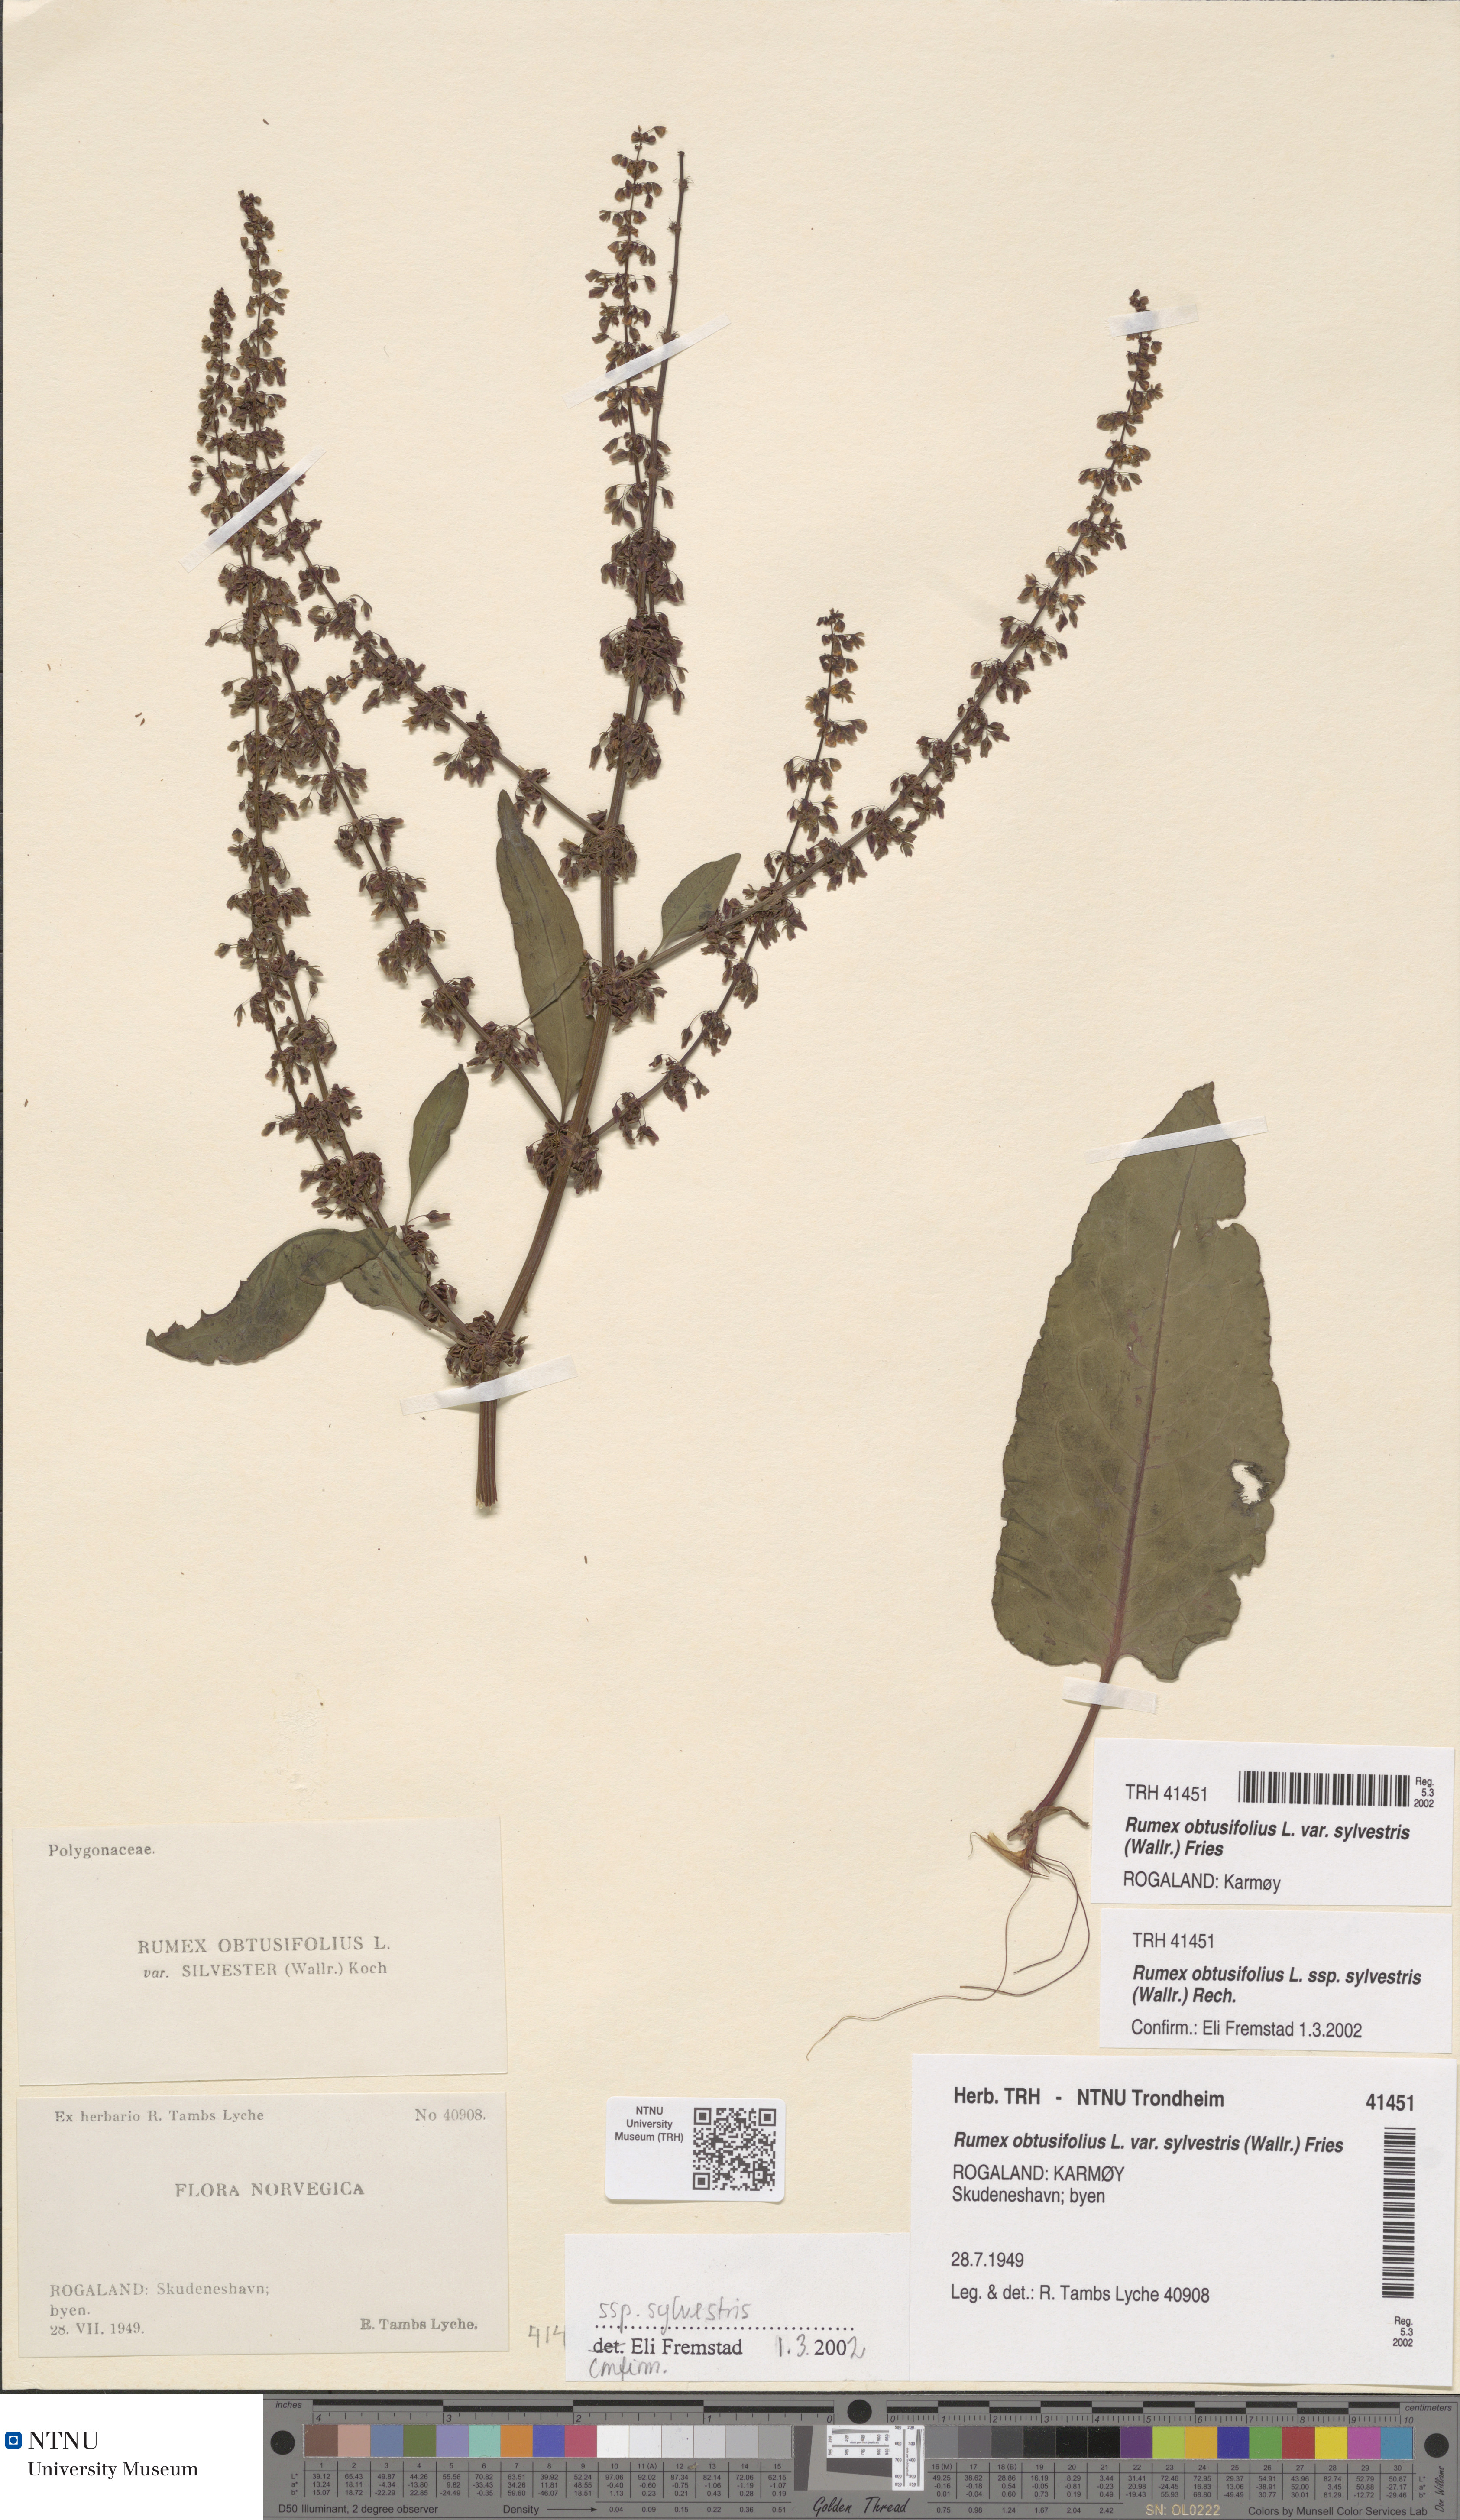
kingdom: Plantae
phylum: Tracheophyta
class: Magnoliopsida
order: Caryophyllales
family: Polygonaceae
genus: Rumex
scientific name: Rumex obtusifolius
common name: Bitter dock
